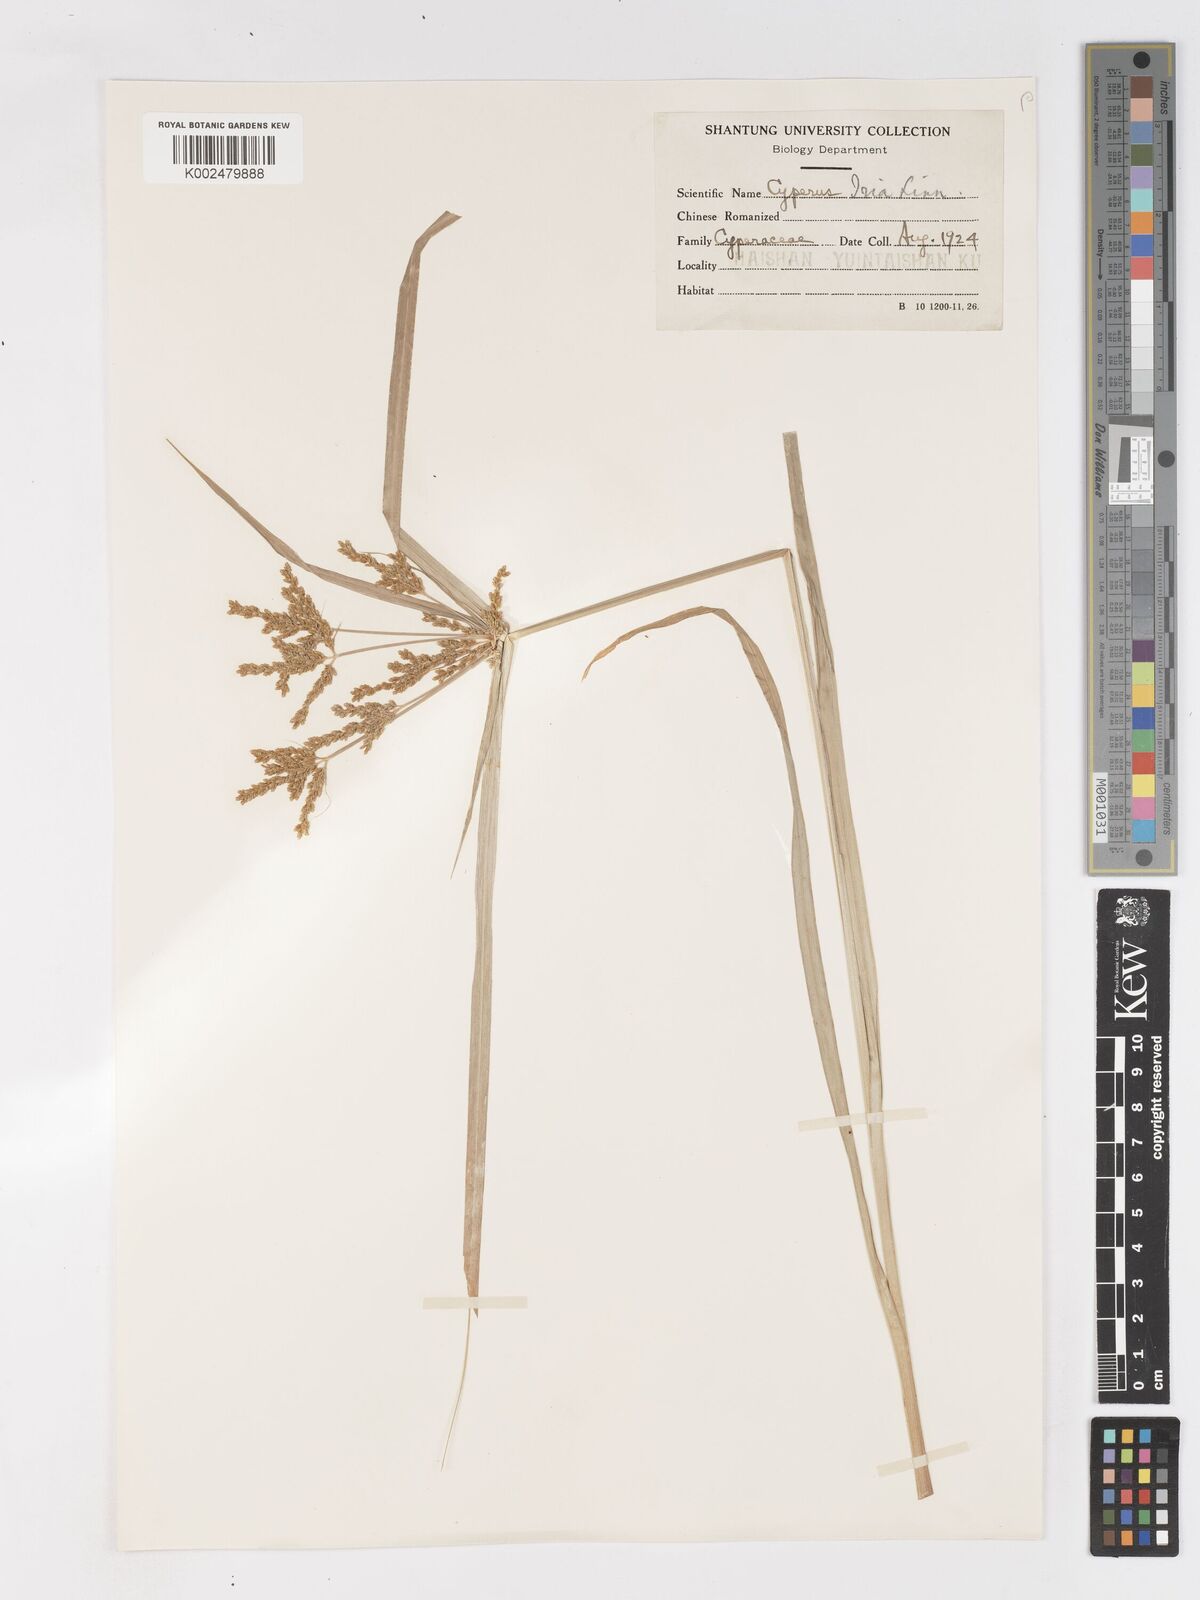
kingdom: Plantae
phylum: Tracheophyta
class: Liliopsida
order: Poales
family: Cyperaceae
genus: Cyperus
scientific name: Cyperus iria
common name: Ricefield flatsedge
